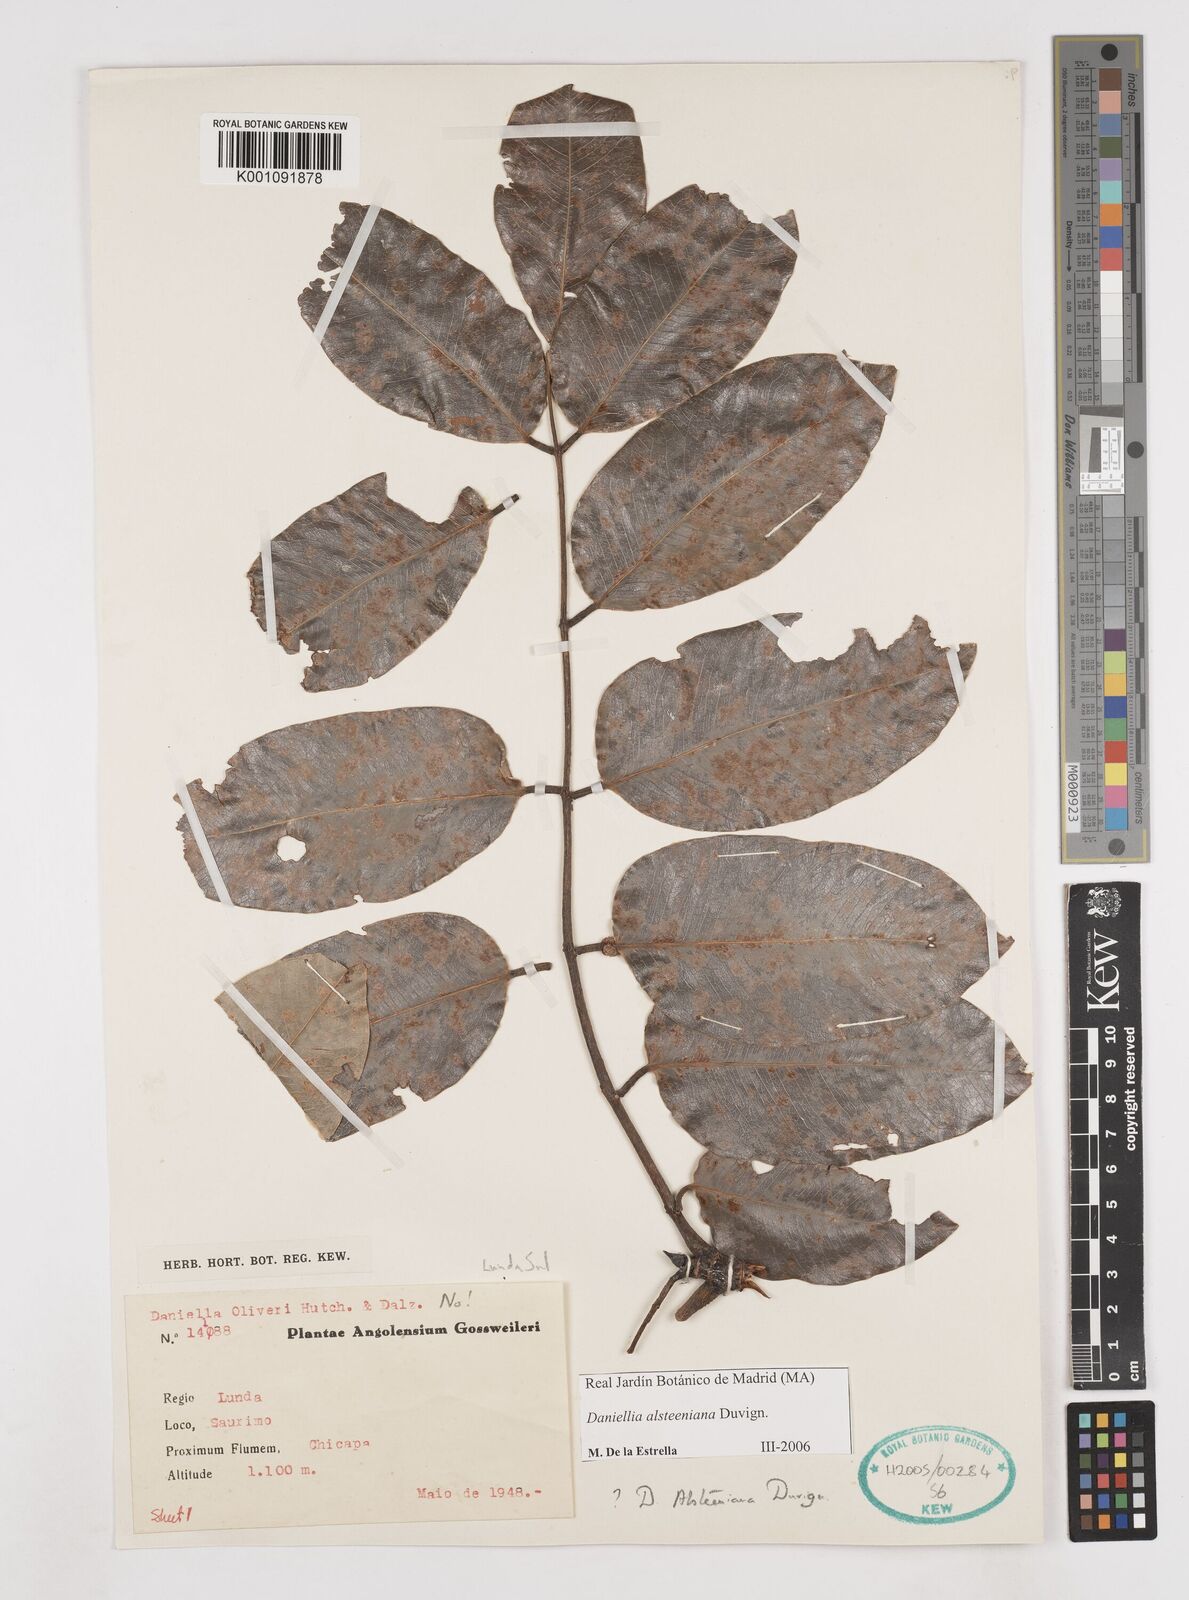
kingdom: Plantae
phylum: Tracheophyta
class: Magnoliopsida
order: Fabales
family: Fabaceae
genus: Daniellia
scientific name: Daniellia alsteeniana
